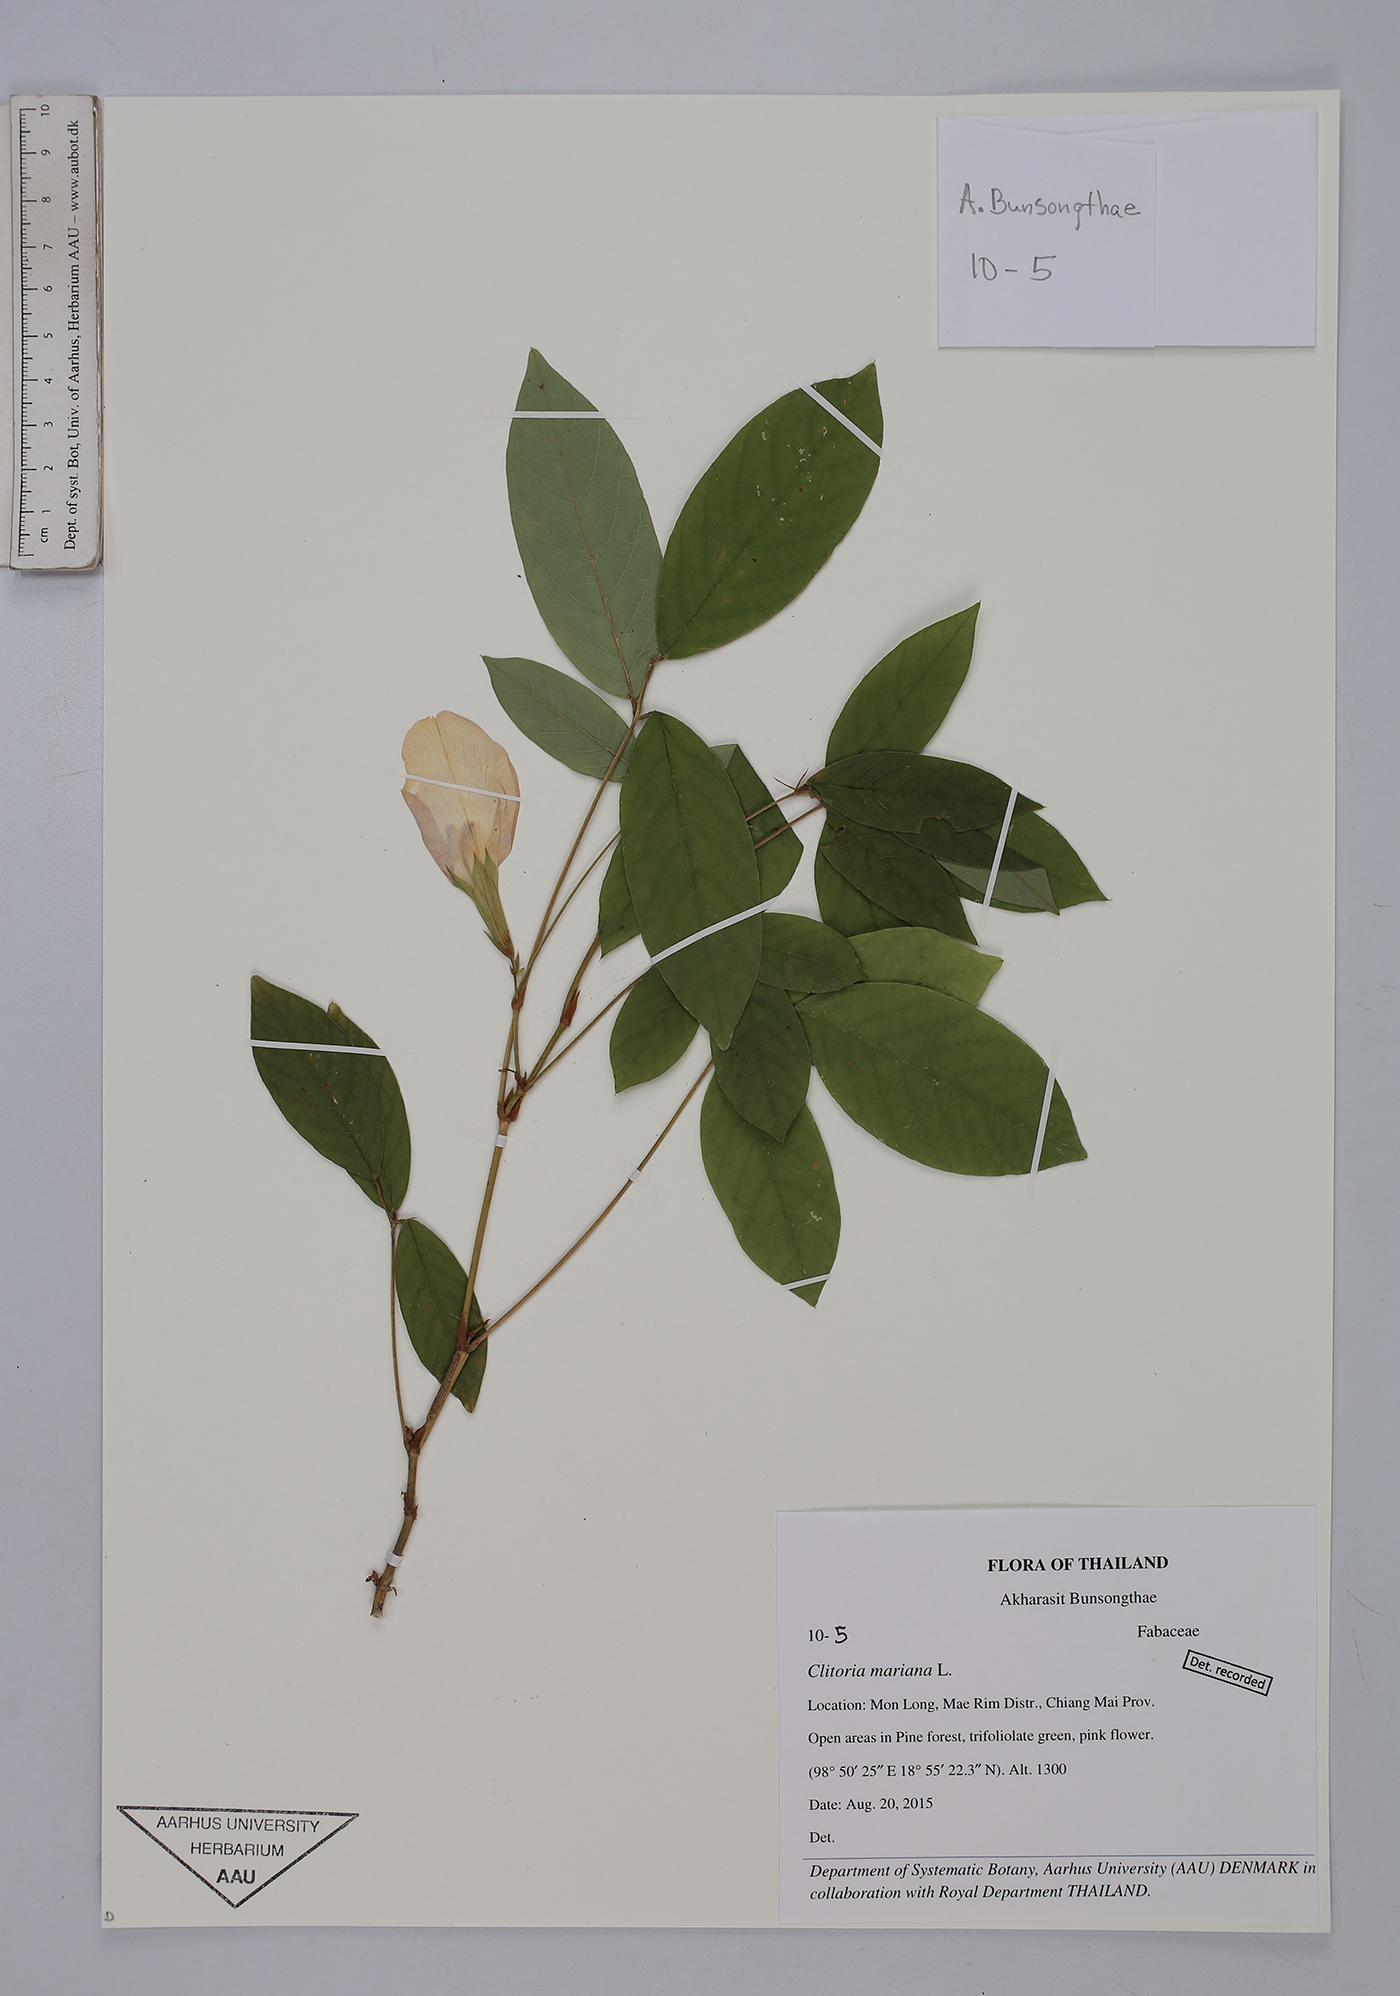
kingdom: Plantae
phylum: Tracheophyta
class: Magnoliopsida
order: Fabales
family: Fabaceae
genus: Clitoria
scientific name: Clitoria mariana
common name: Butterfly-pea
